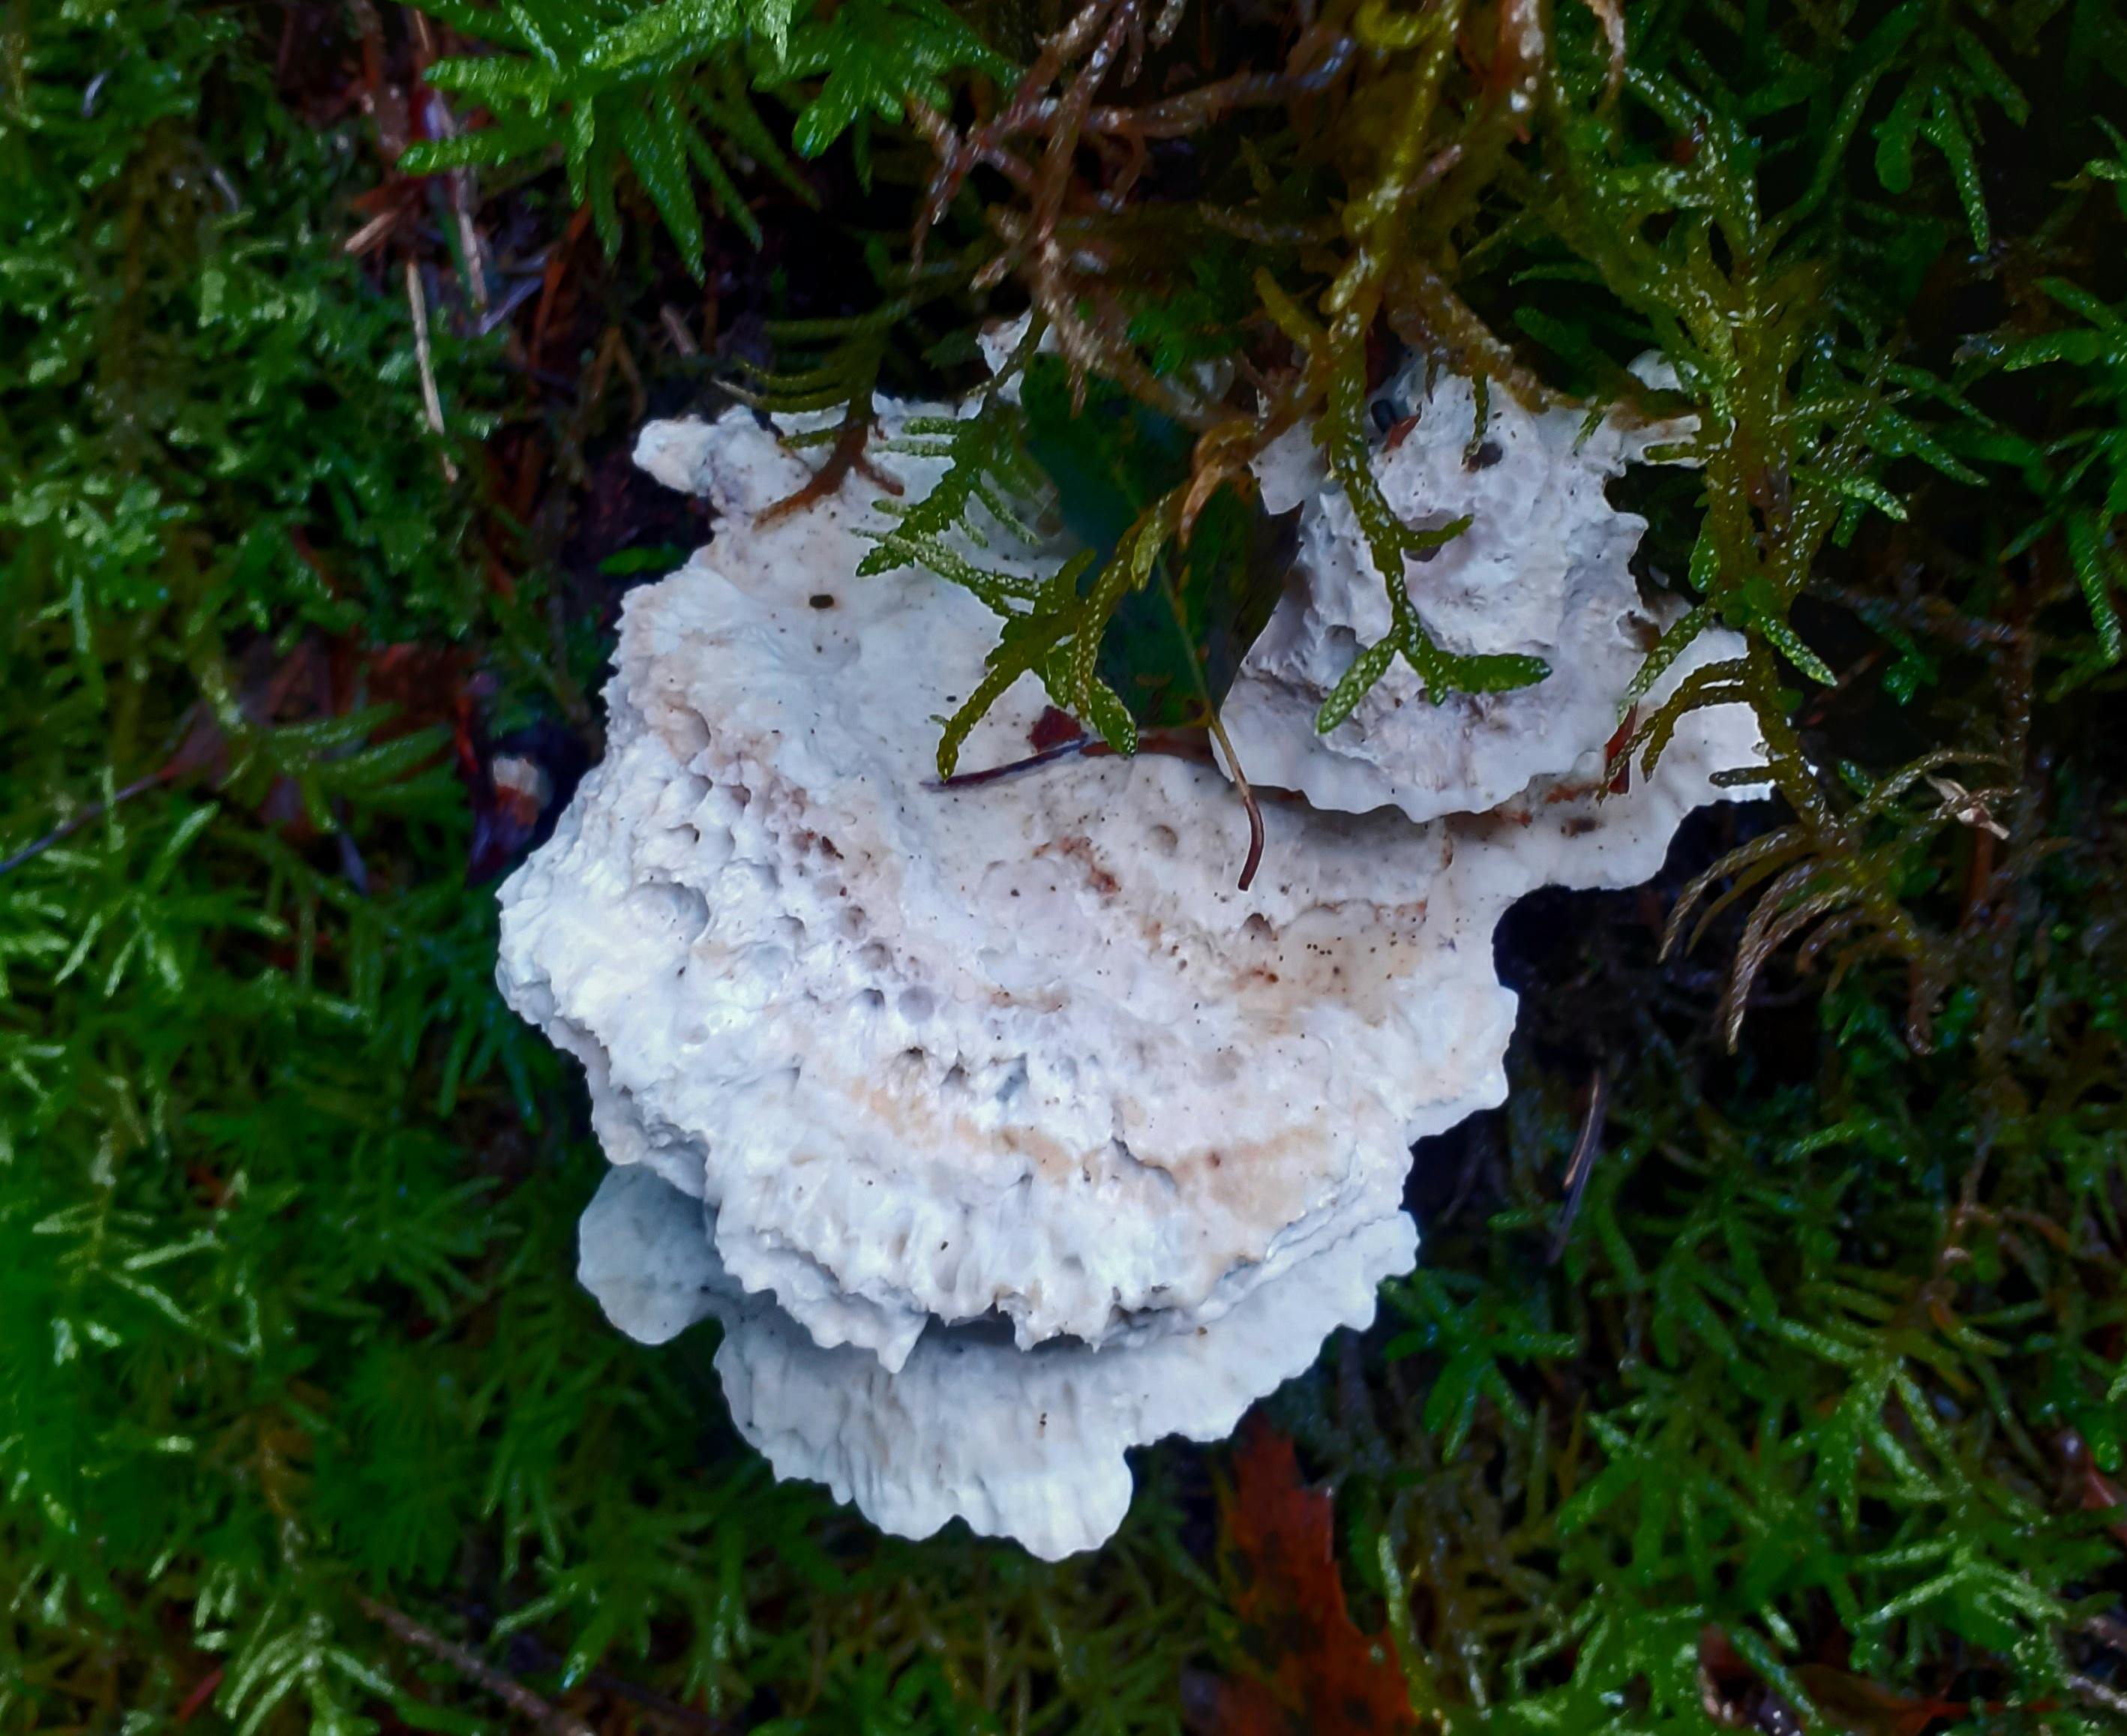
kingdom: Fungi
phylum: Basidiomycota
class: Agaricomycetes
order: Polyporales
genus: Calcipostia
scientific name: Calcipostia guttulata
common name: dråbe-kødporesvamp
